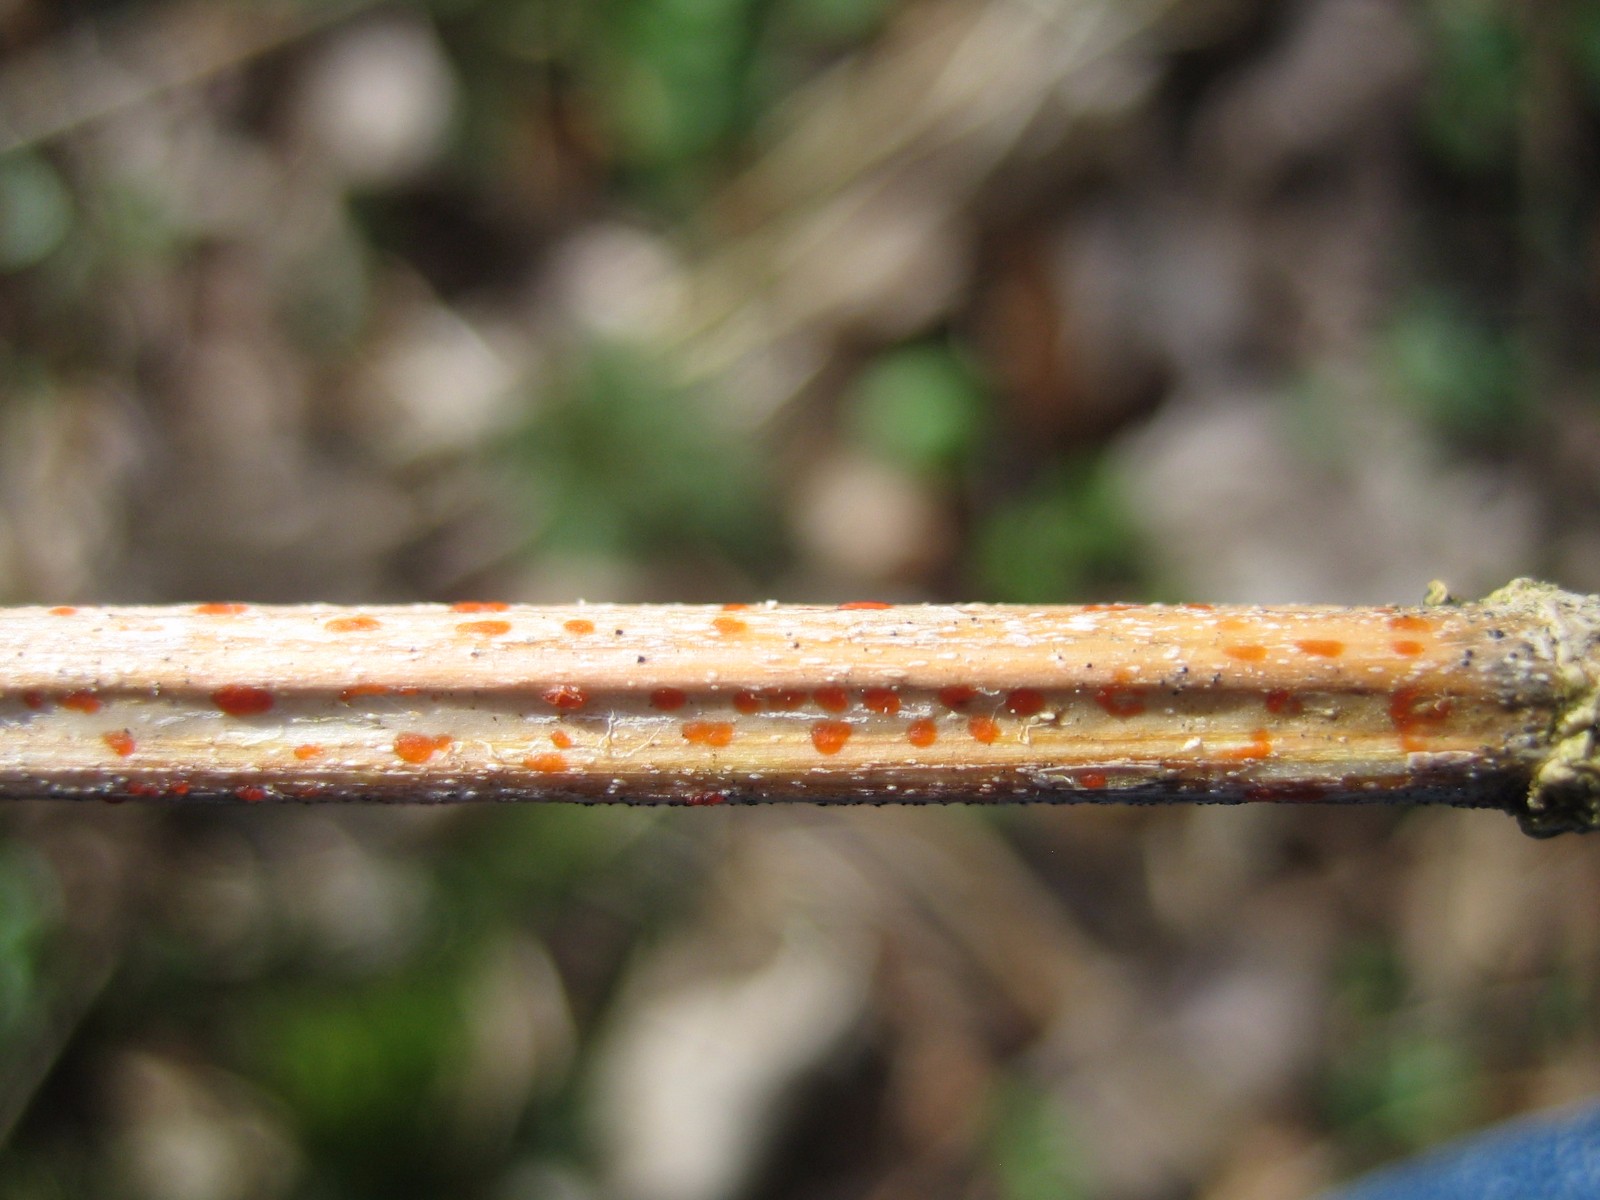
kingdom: Fungi
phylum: Ascomycota
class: Leotiomycetes
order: Helotiales
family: Calloriaceae
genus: Calloria
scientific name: Calloria urticae
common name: nælde-orangeskive
